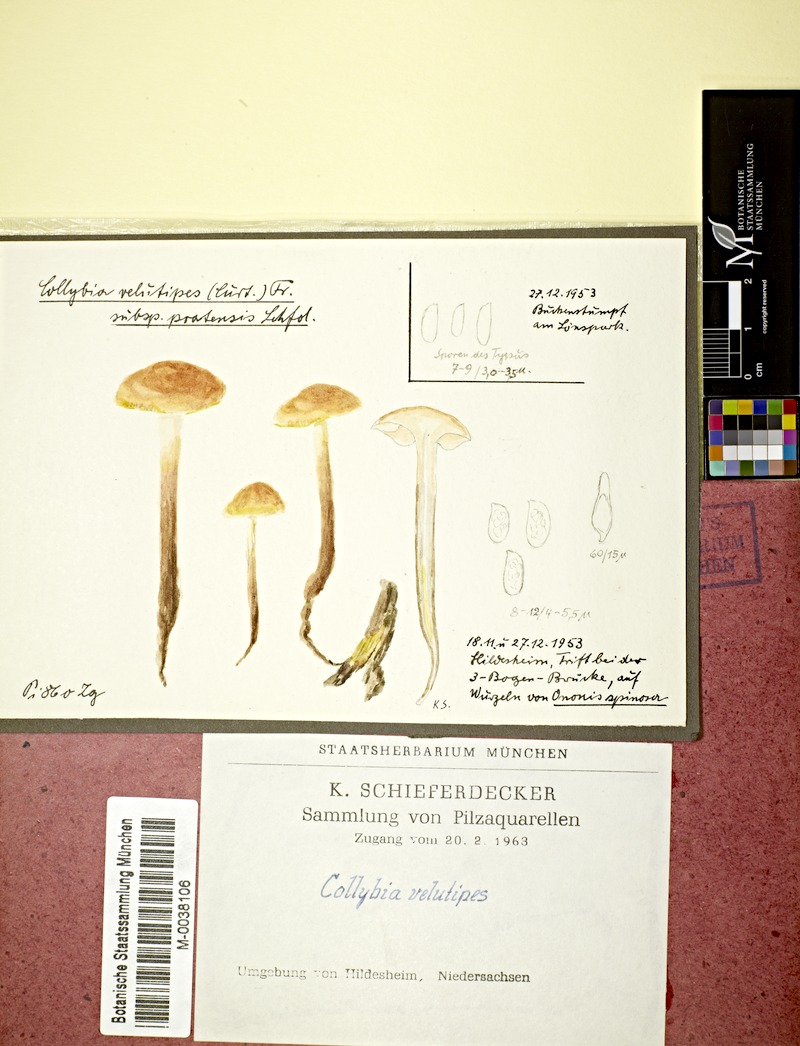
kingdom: Fungi
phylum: Basidiomycota
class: Agaricomycetes
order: Agaricales
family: Physalacriaceae
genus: Flammulina
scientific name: Flammulina ononidis
